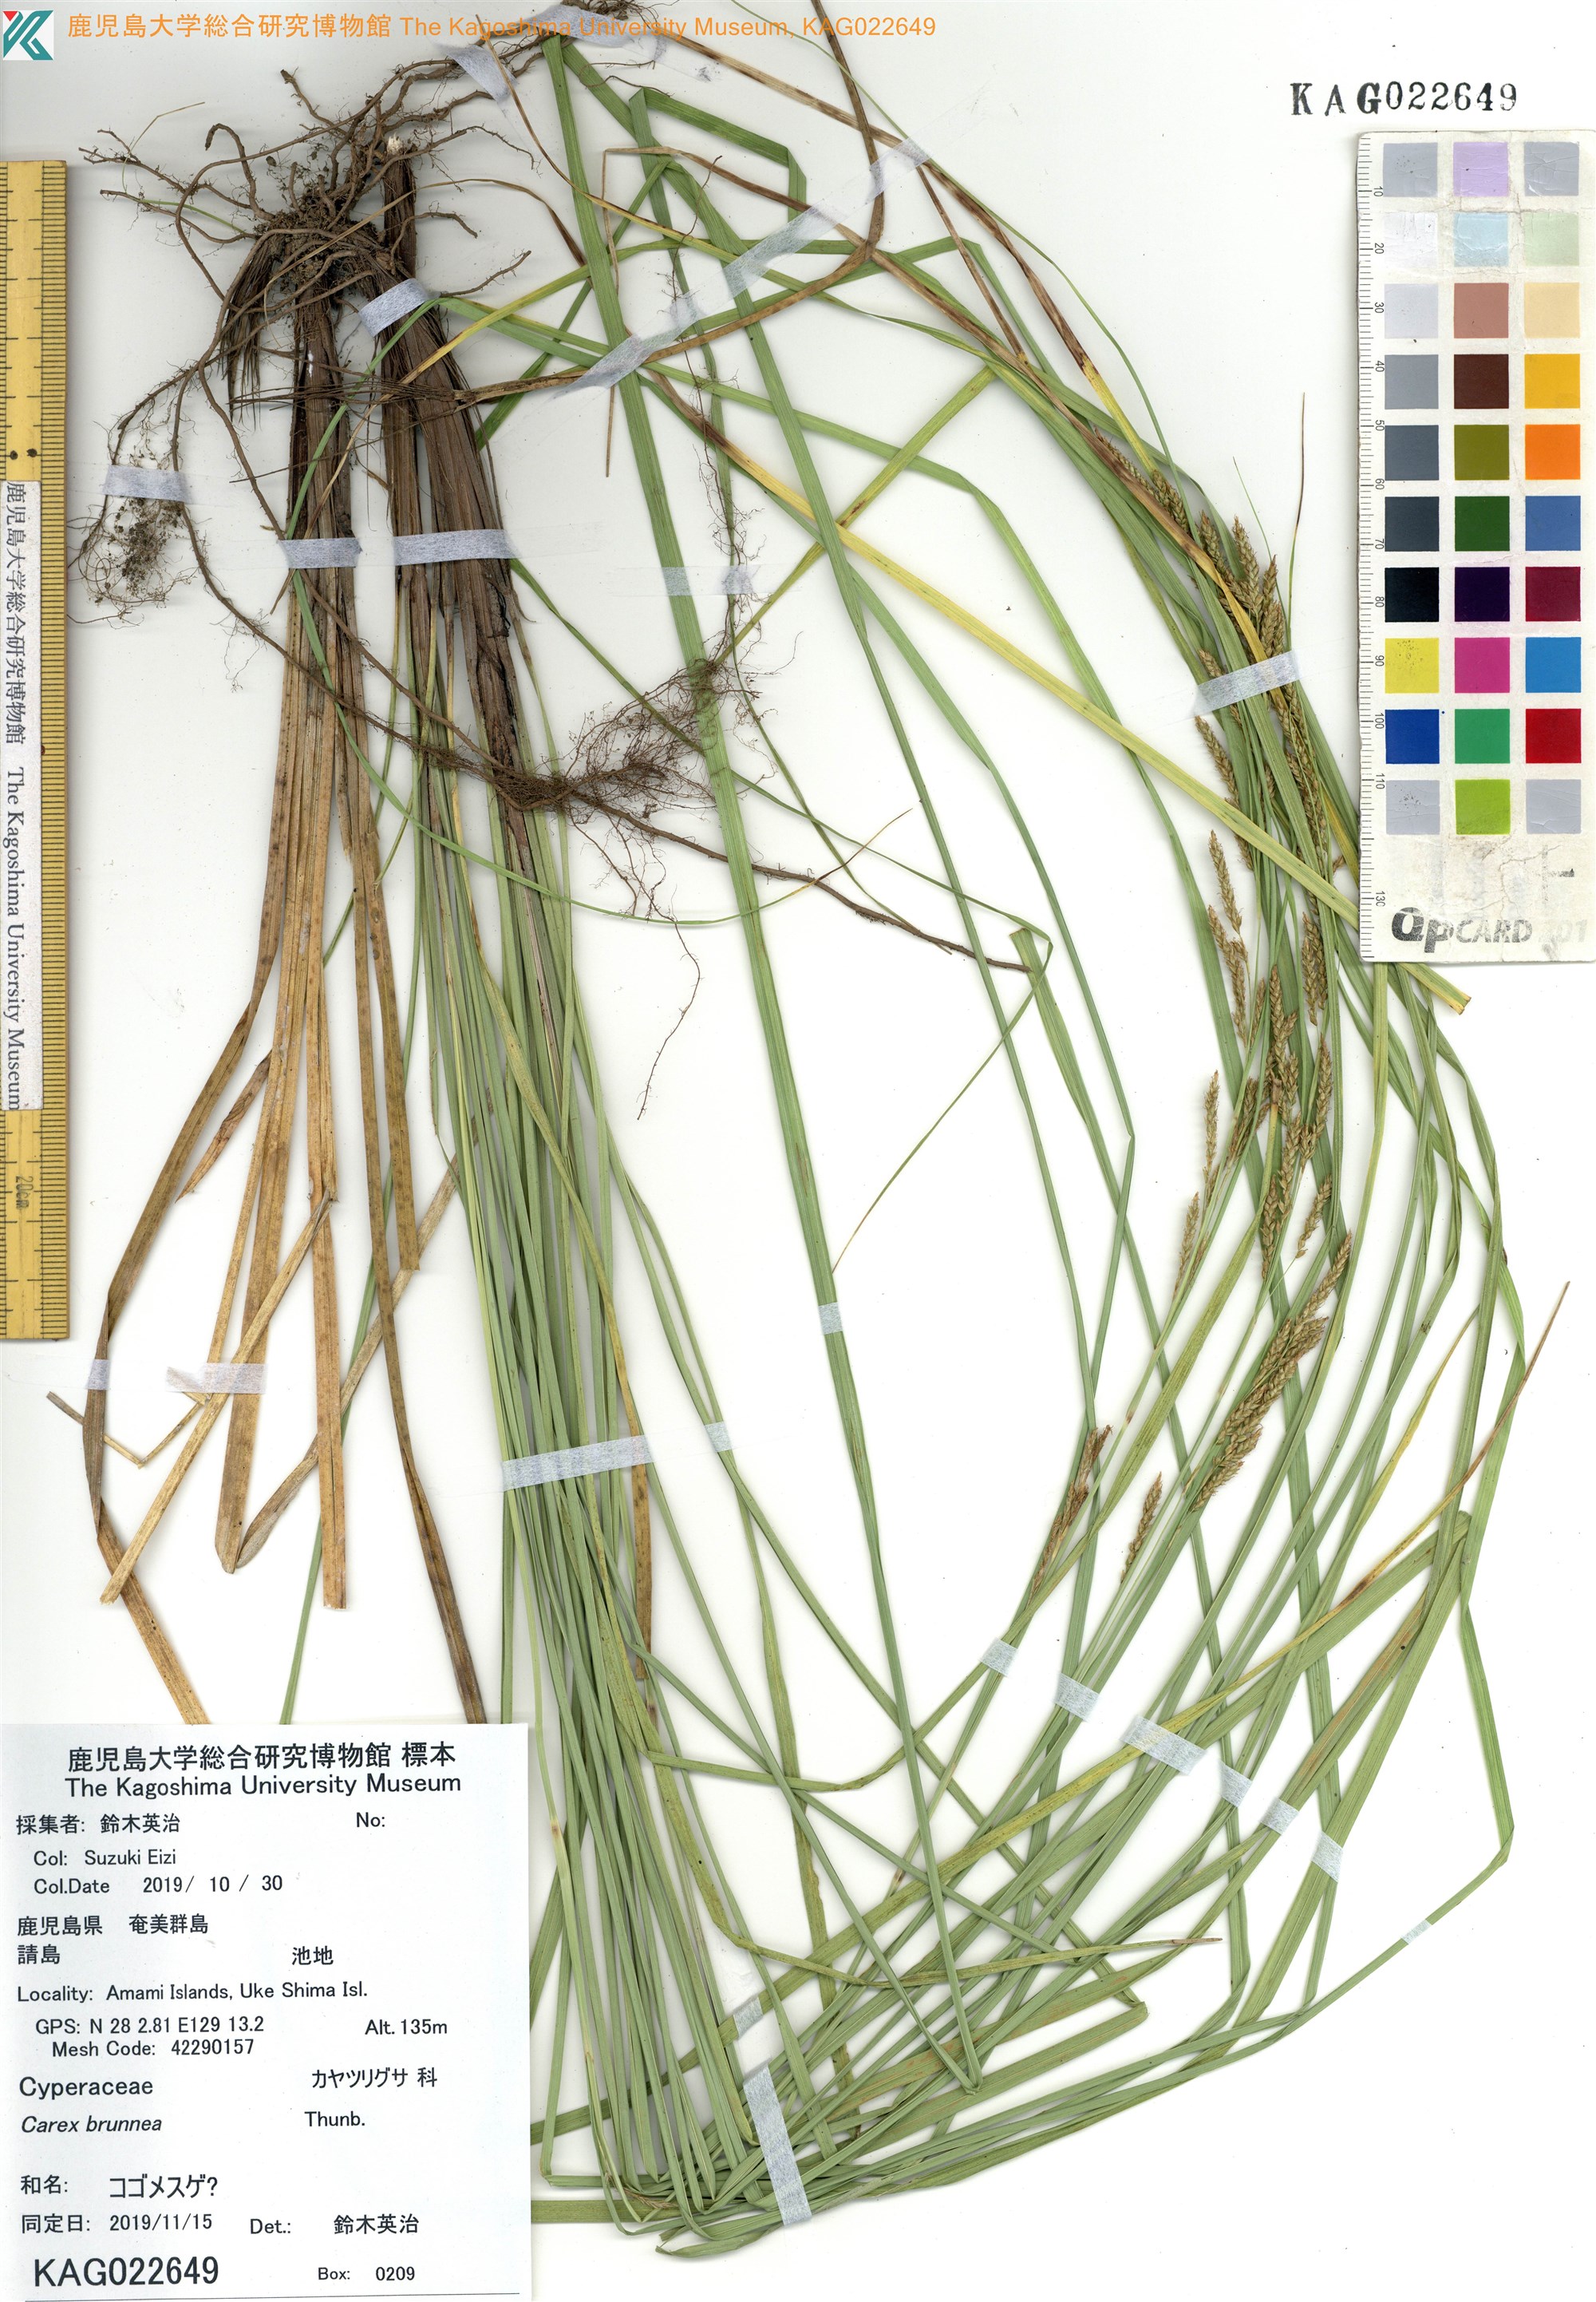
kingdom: Plantae
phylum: Tracheophyta
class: Liliopsida
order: Poales
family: Cyperaceae
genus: Carex
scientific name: Carex
